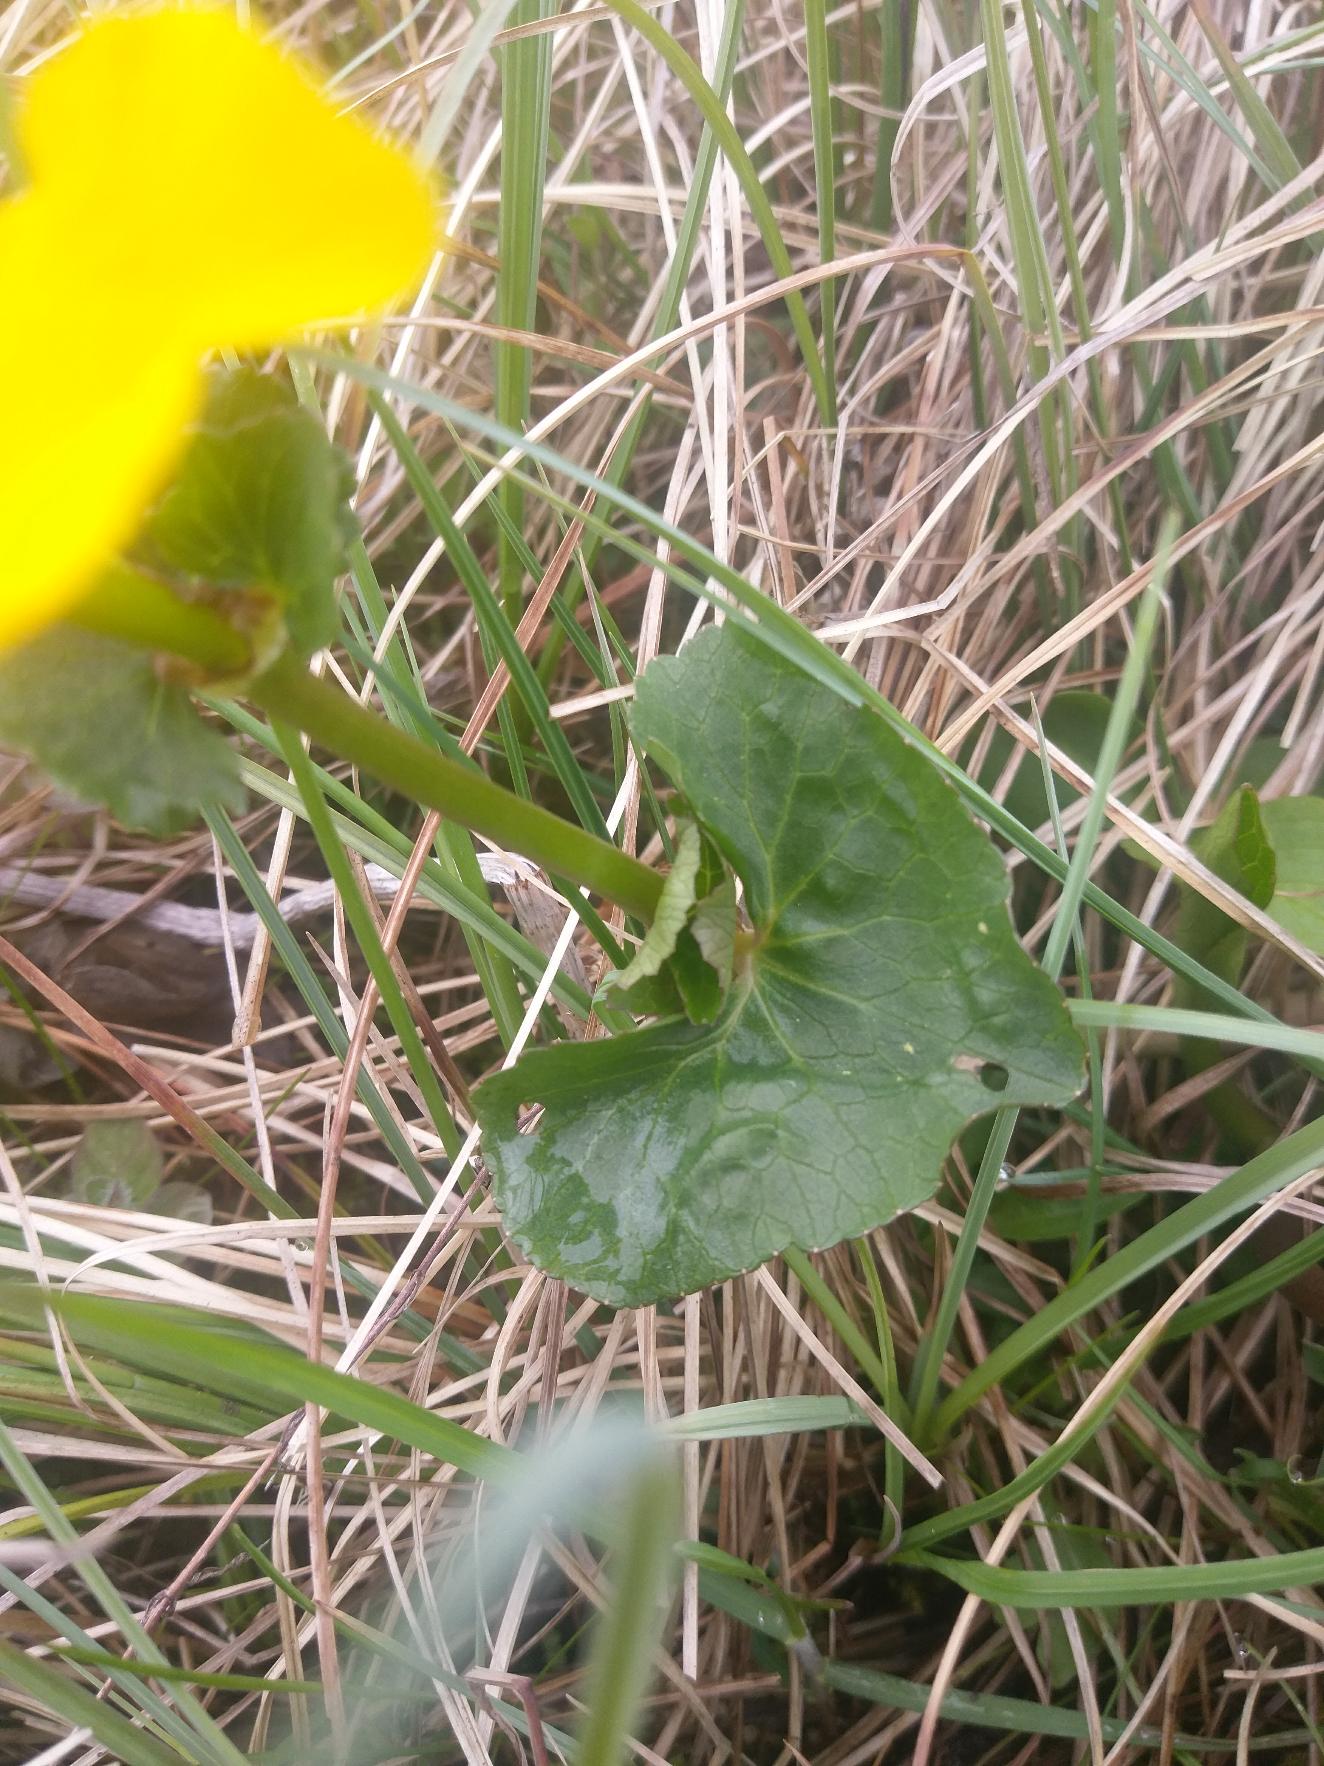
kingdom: Plantae
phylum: Tracheophyta
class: Magnoliopsida
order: Ranunculales
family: Ranunculaceae
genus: Caltha
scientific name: Caltha palustris
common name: Eng-kabbeleje
